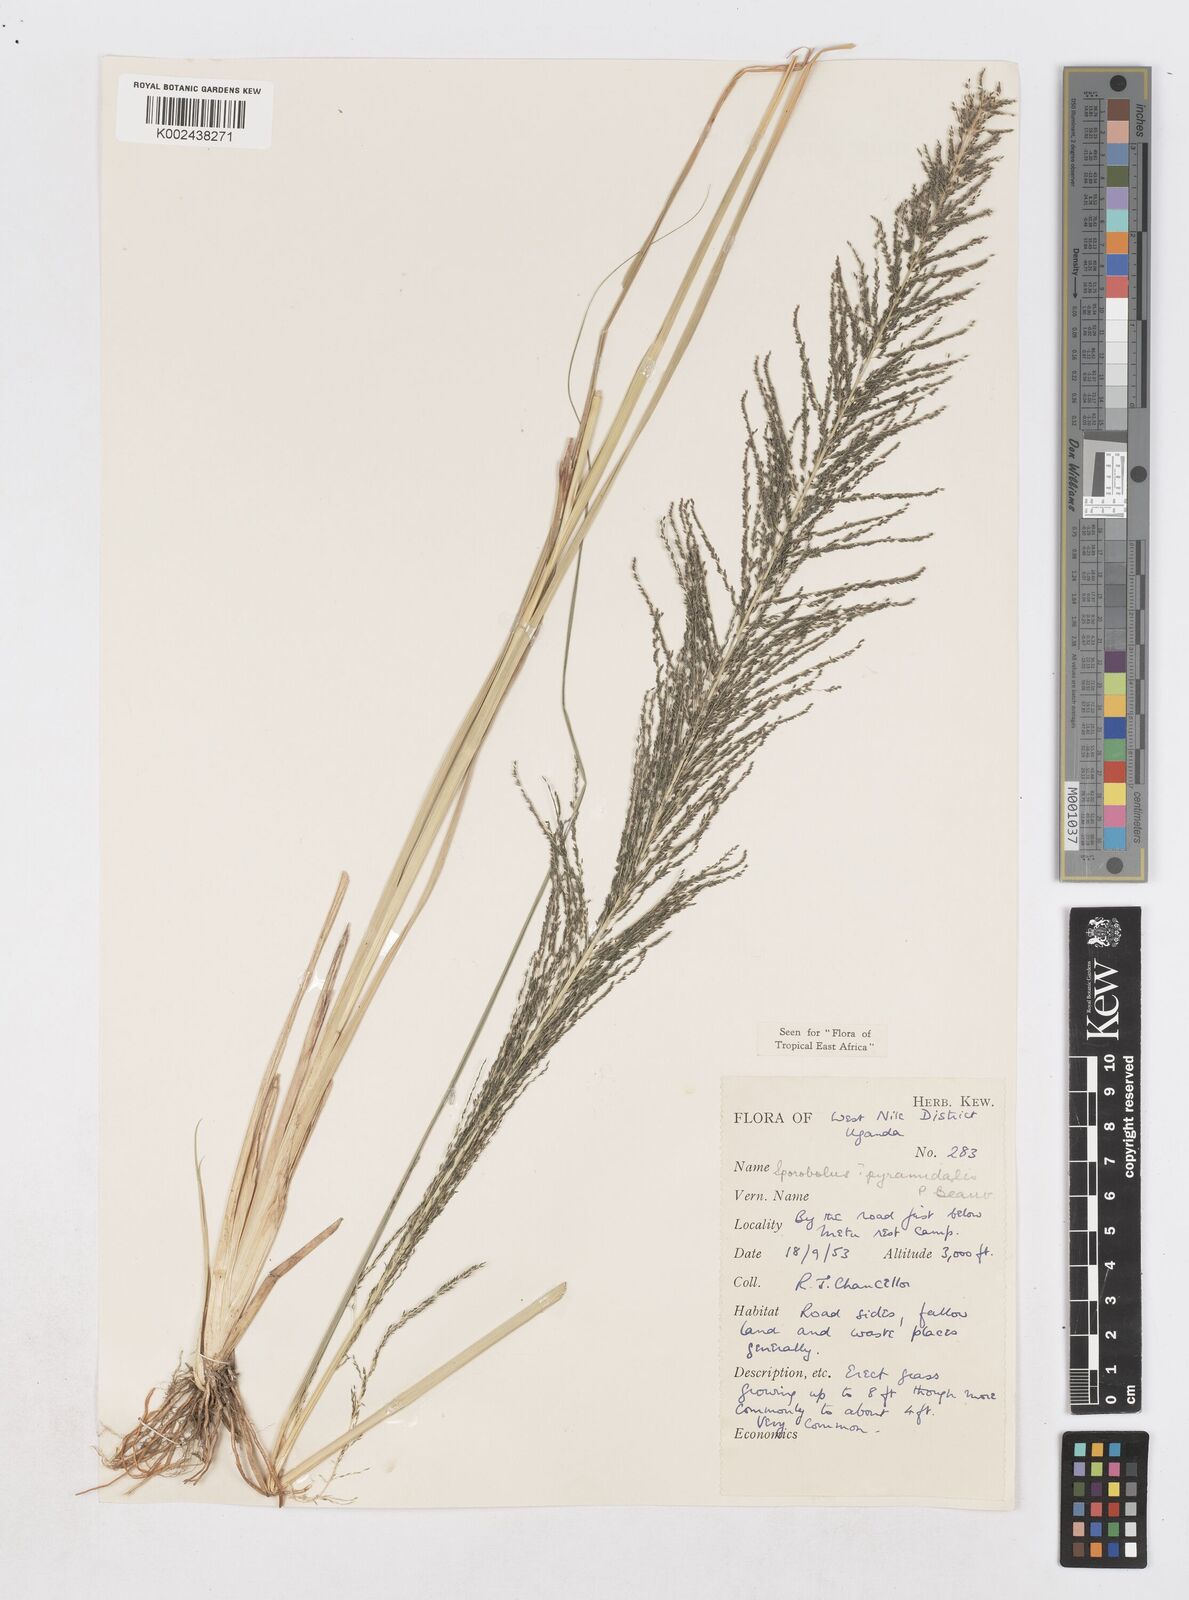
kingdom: Plantae
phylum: Tracheophyta
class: Liliopsida
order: Poales
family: Poaceae
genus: Sporobolus
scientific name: Sporobolus pyramidalis
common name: West indian dropseed
